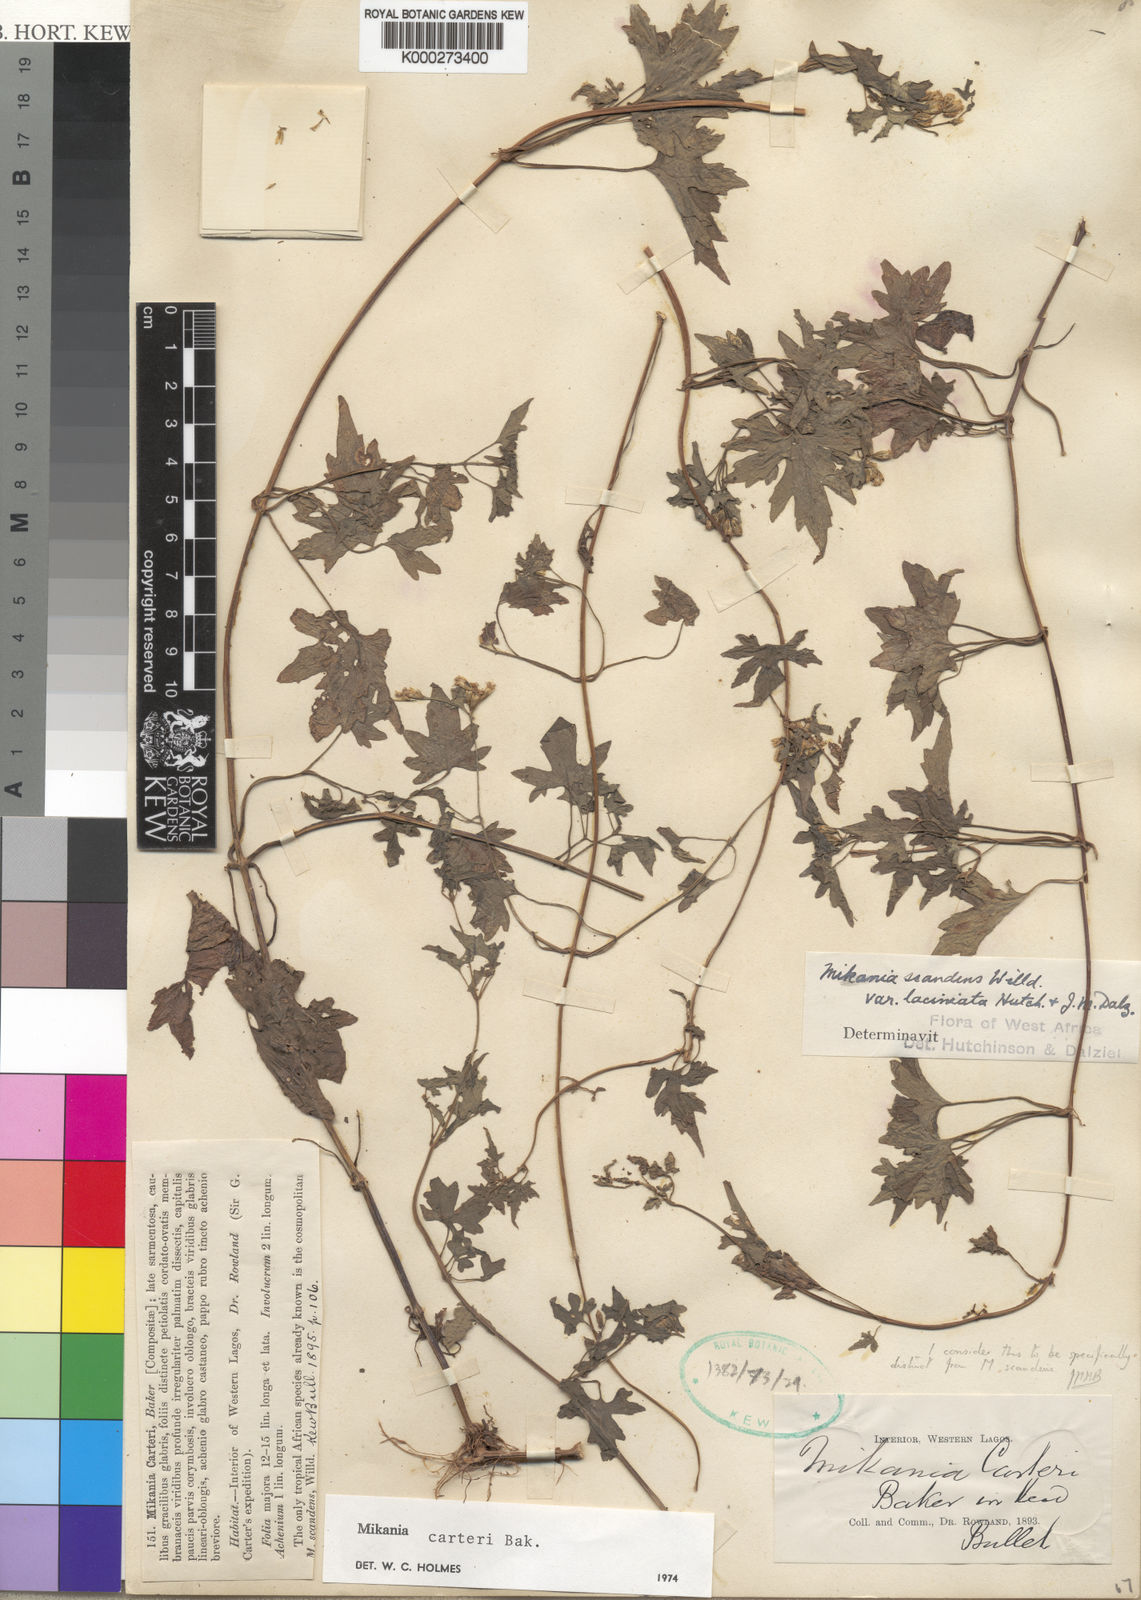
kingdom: Plantae
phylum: Tracheophyta
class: Magnoliopsida
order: Asterales
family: Asteraceae
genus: Mikania
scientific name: Mikania cordata
